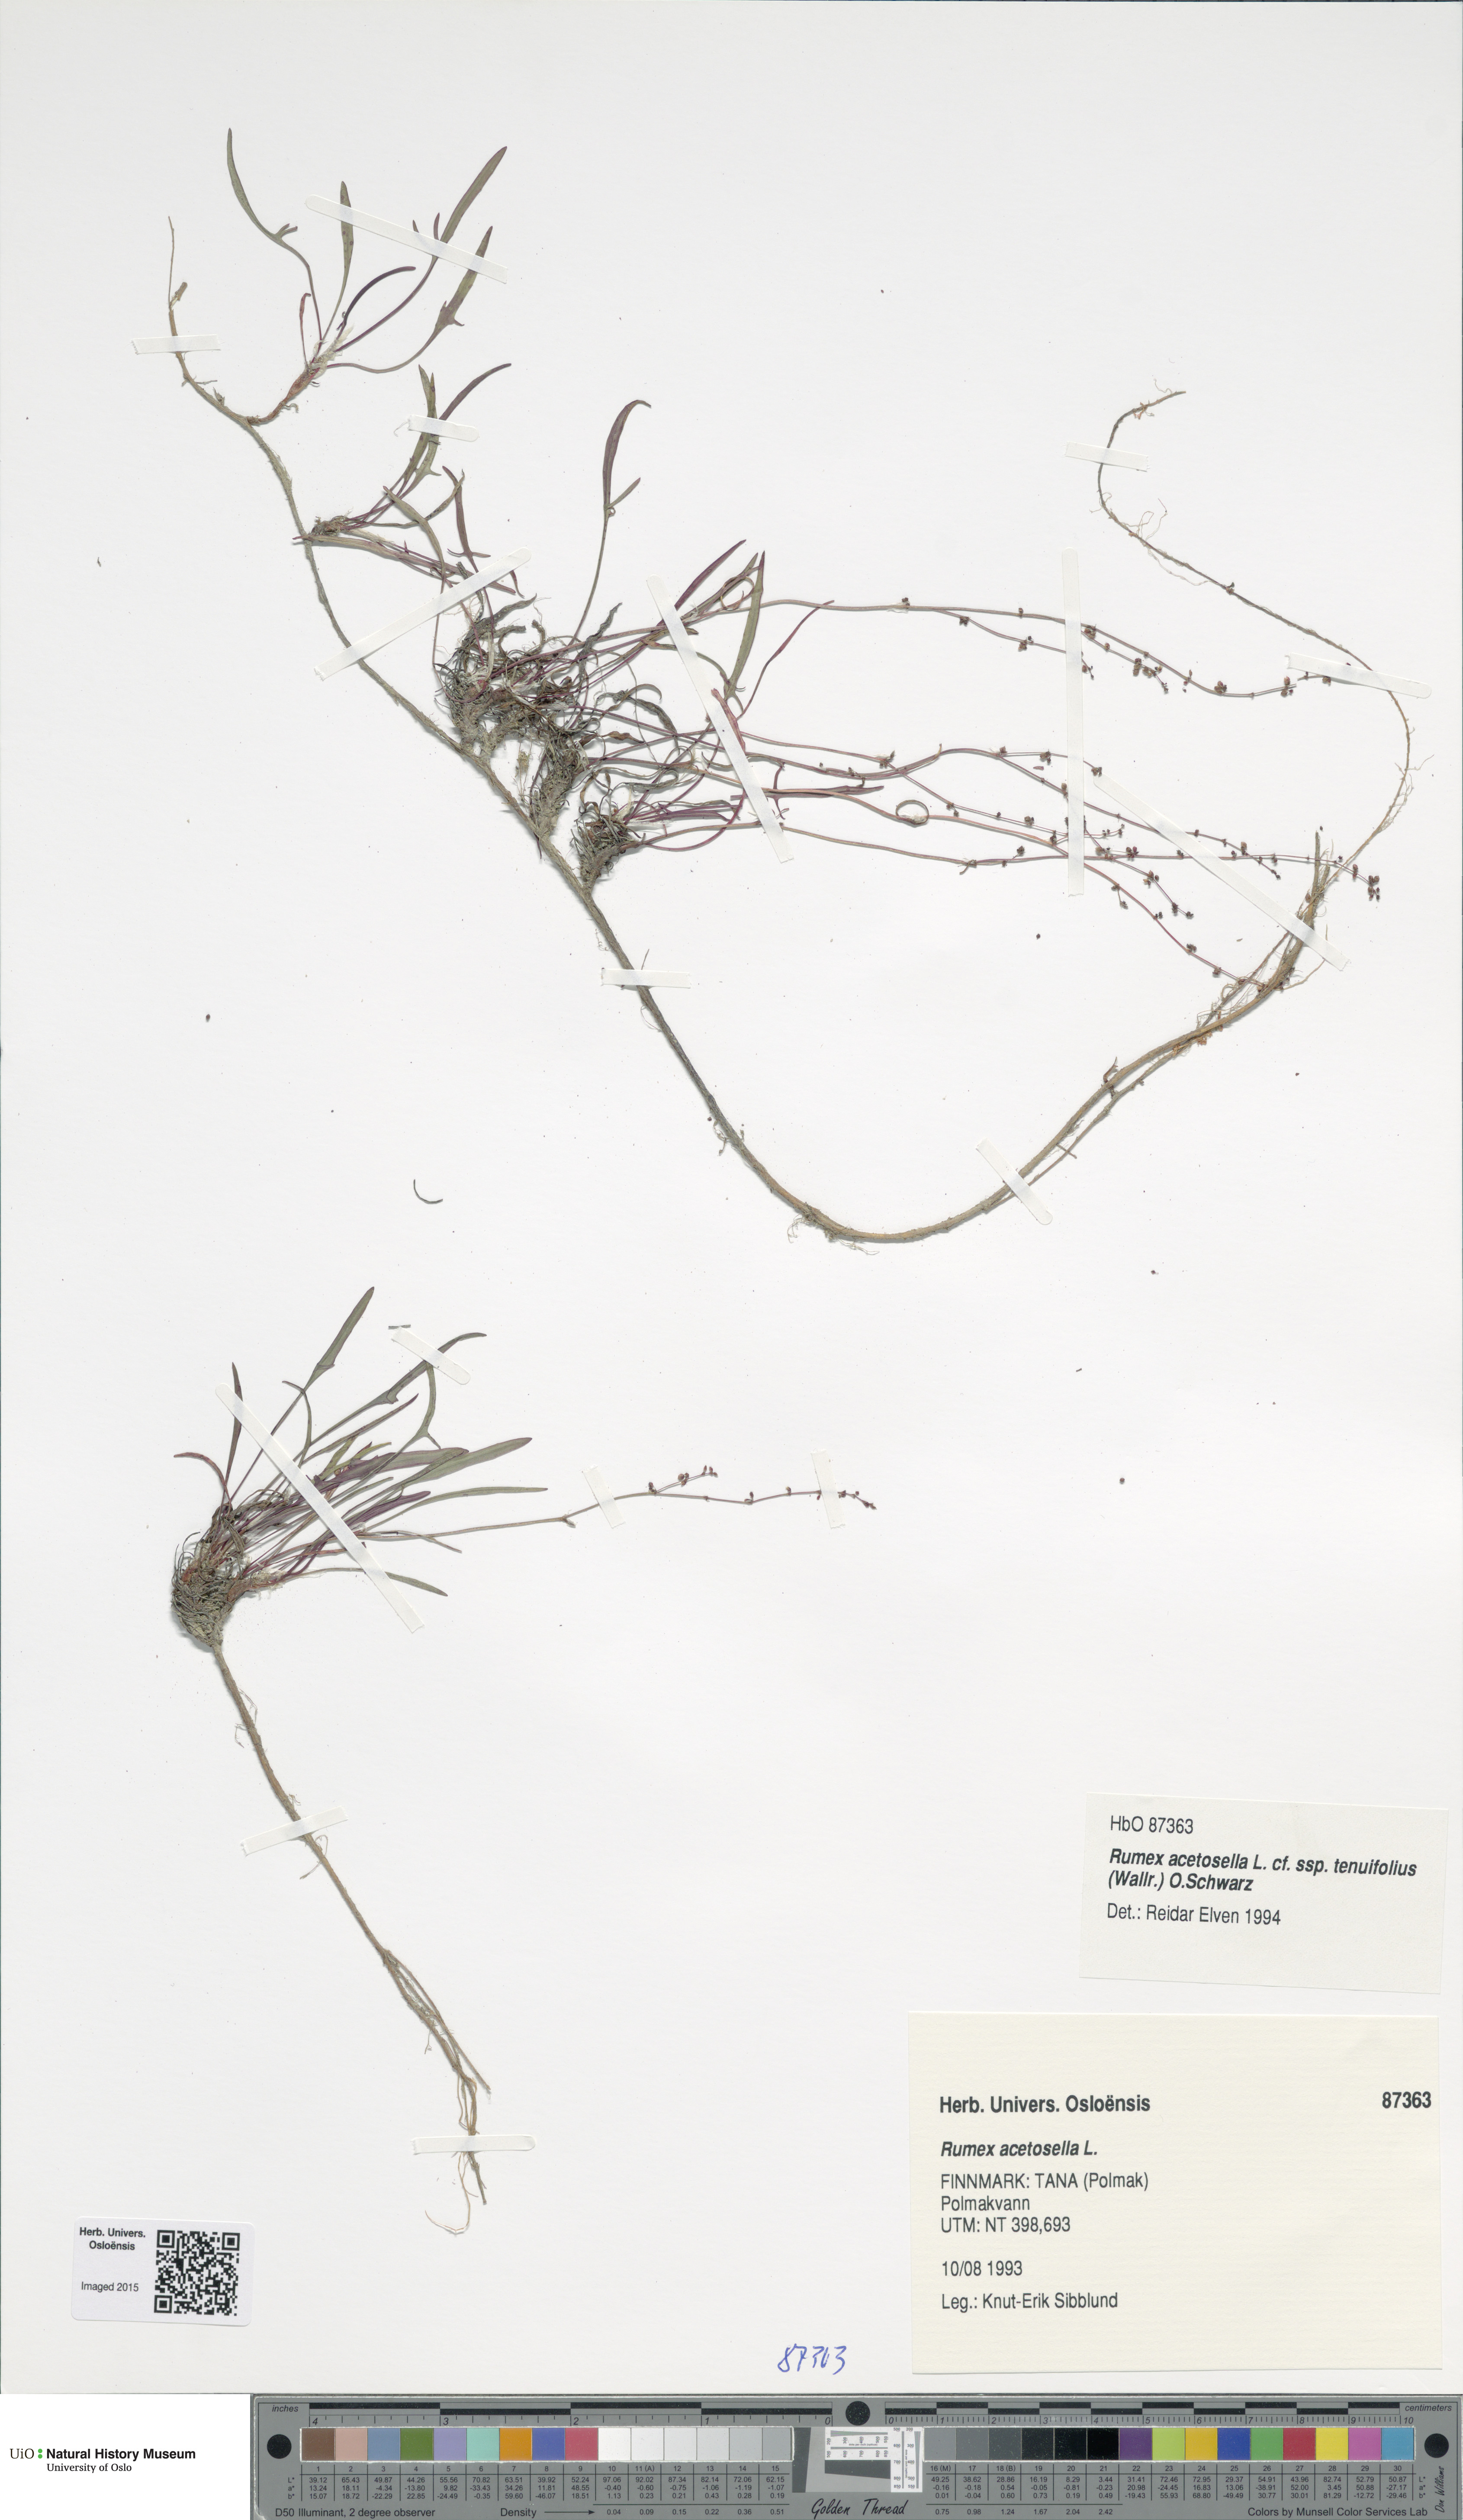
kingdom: Plantae
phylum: Tracheophyta
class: Magnoliopsida
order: Caryophyllales
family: Polygonaceae
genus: Rumex
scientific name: Rumex acetosella
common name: Common sheep sorrel
